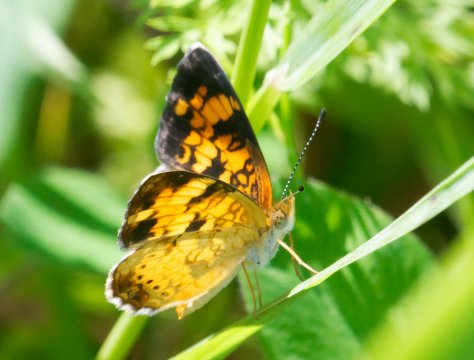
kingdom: Animalia
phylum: Arthropoda
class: Insecta
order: Lepidoptera
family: Nymphalidae
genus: Phyciodes
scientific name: Phyciodes tharos
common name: Pearl Crescent
